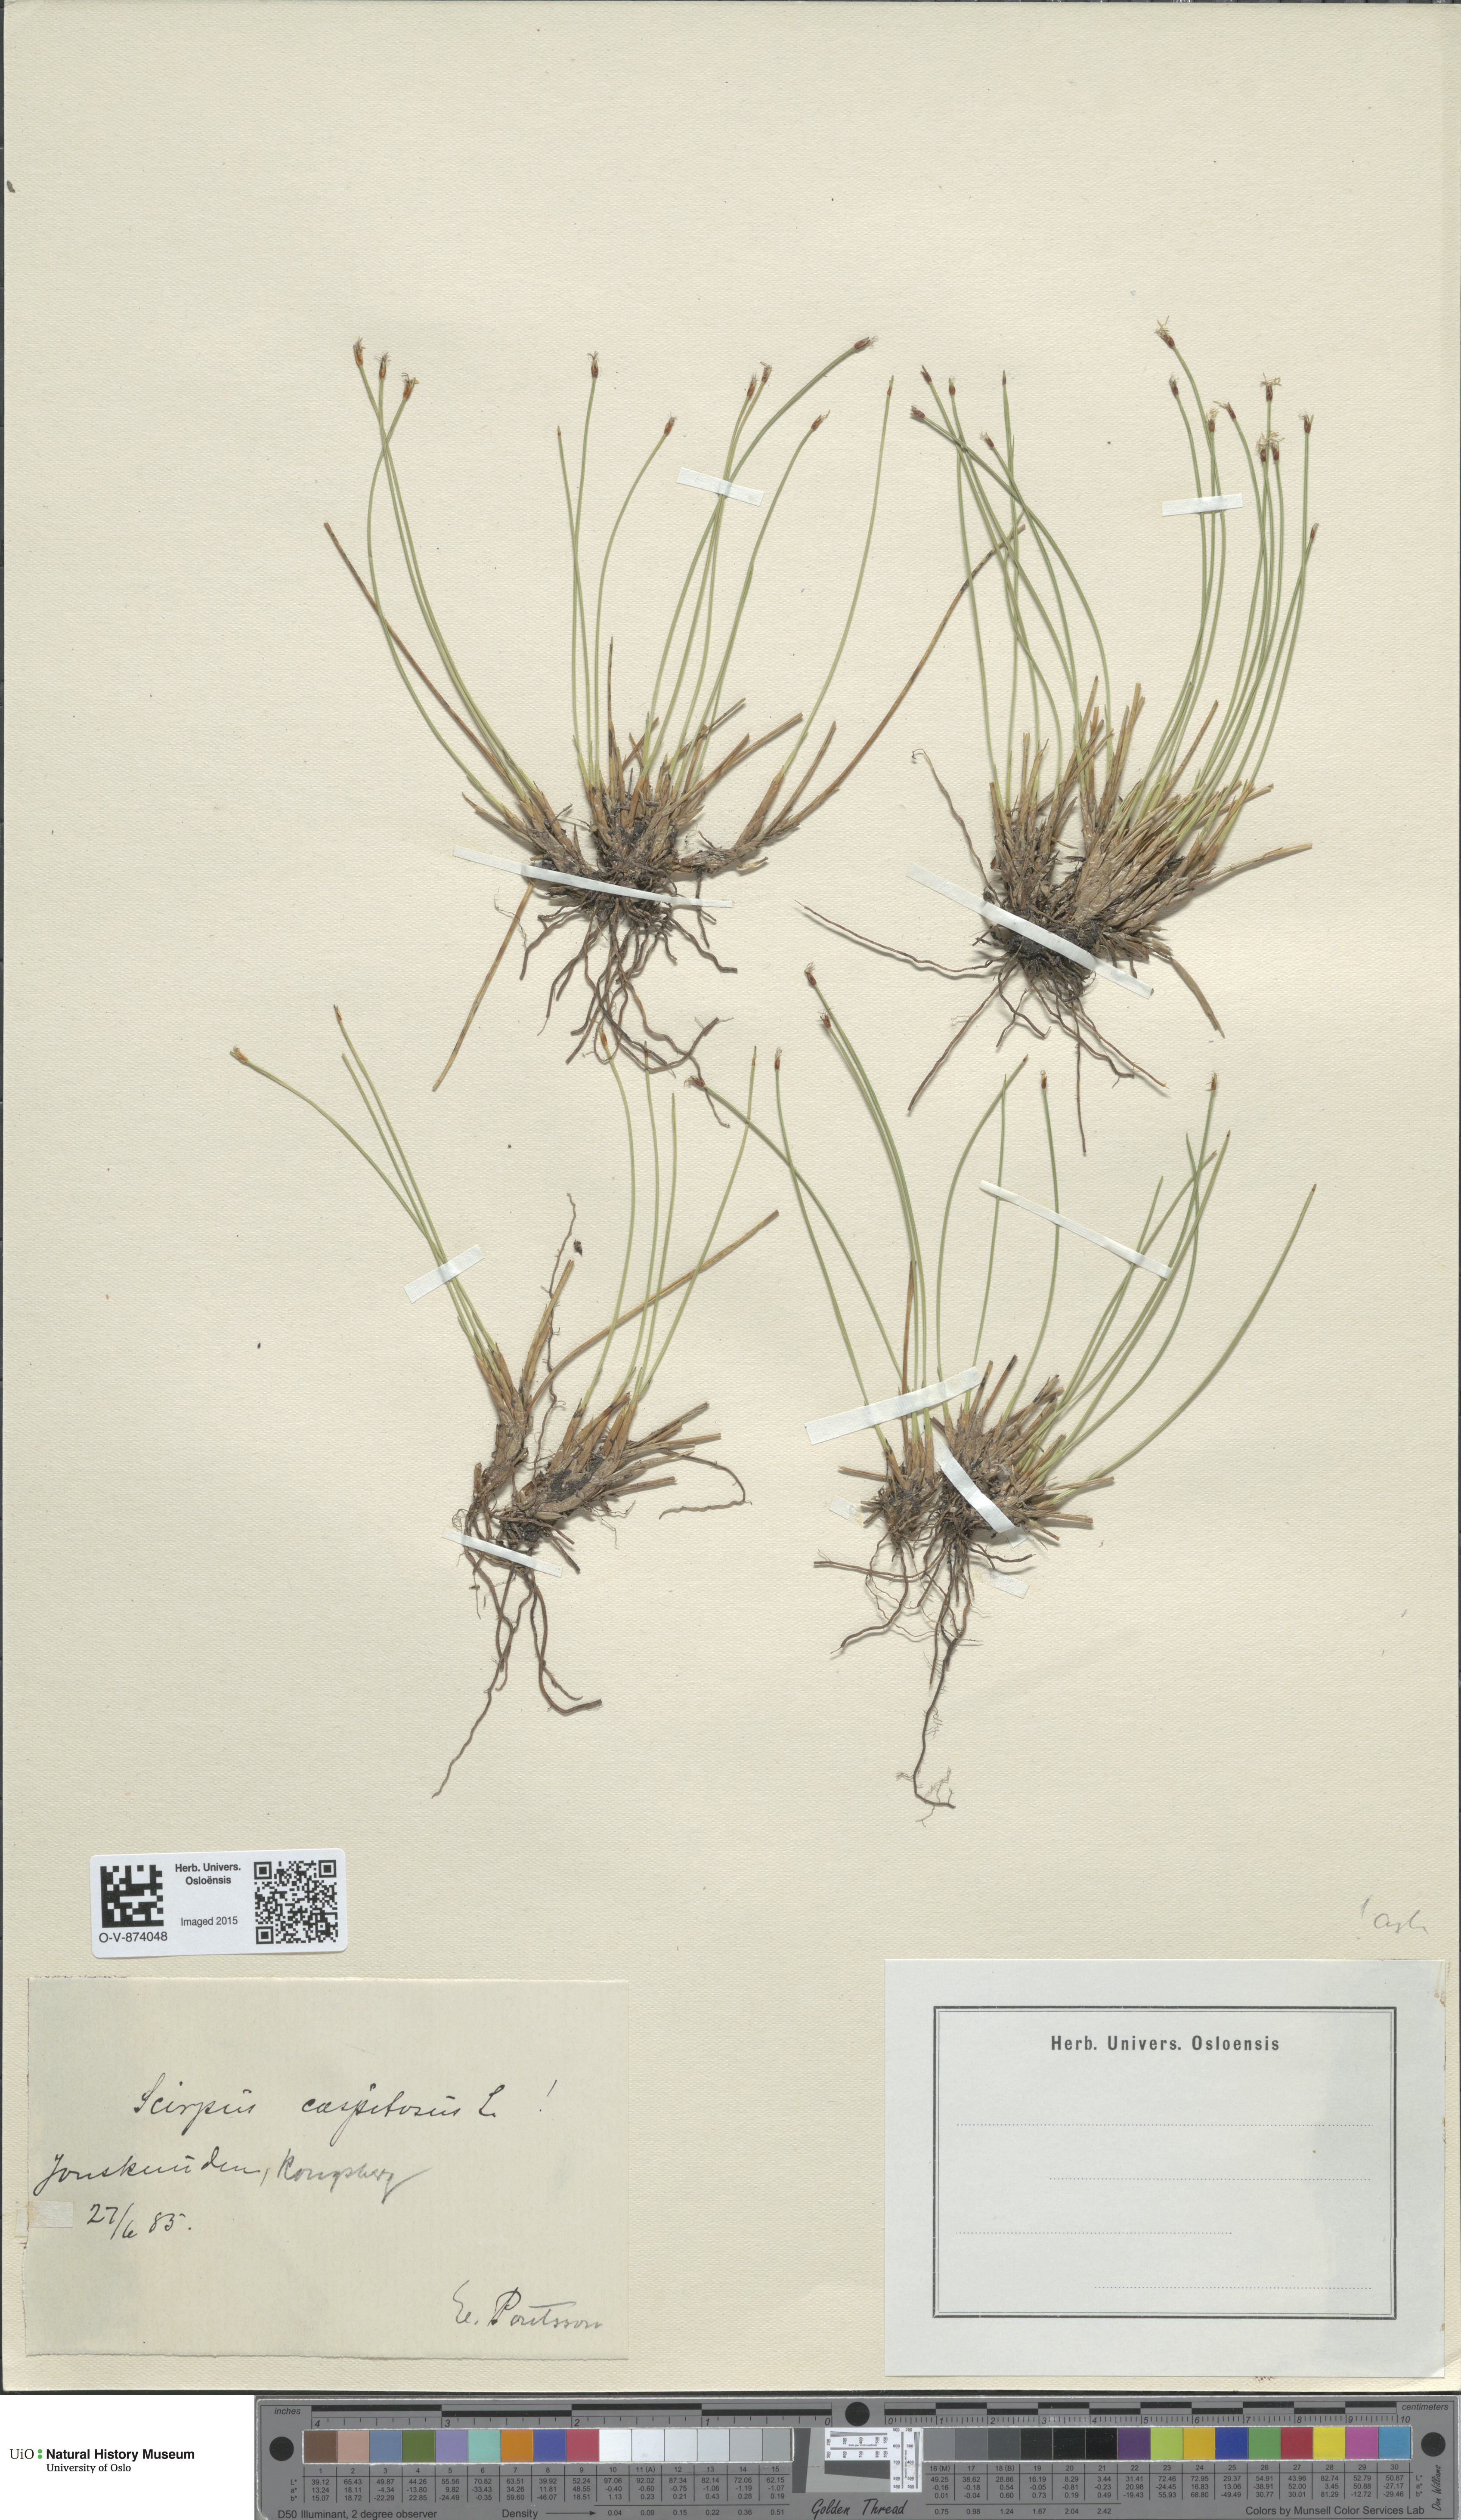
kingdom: Plantae
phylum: Tracheophyta
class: Liliopsida
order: Poales
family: Cyperaceae
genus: Trichophorum
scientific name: Trichophorum cespitosum
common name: Cespitose bulrush
